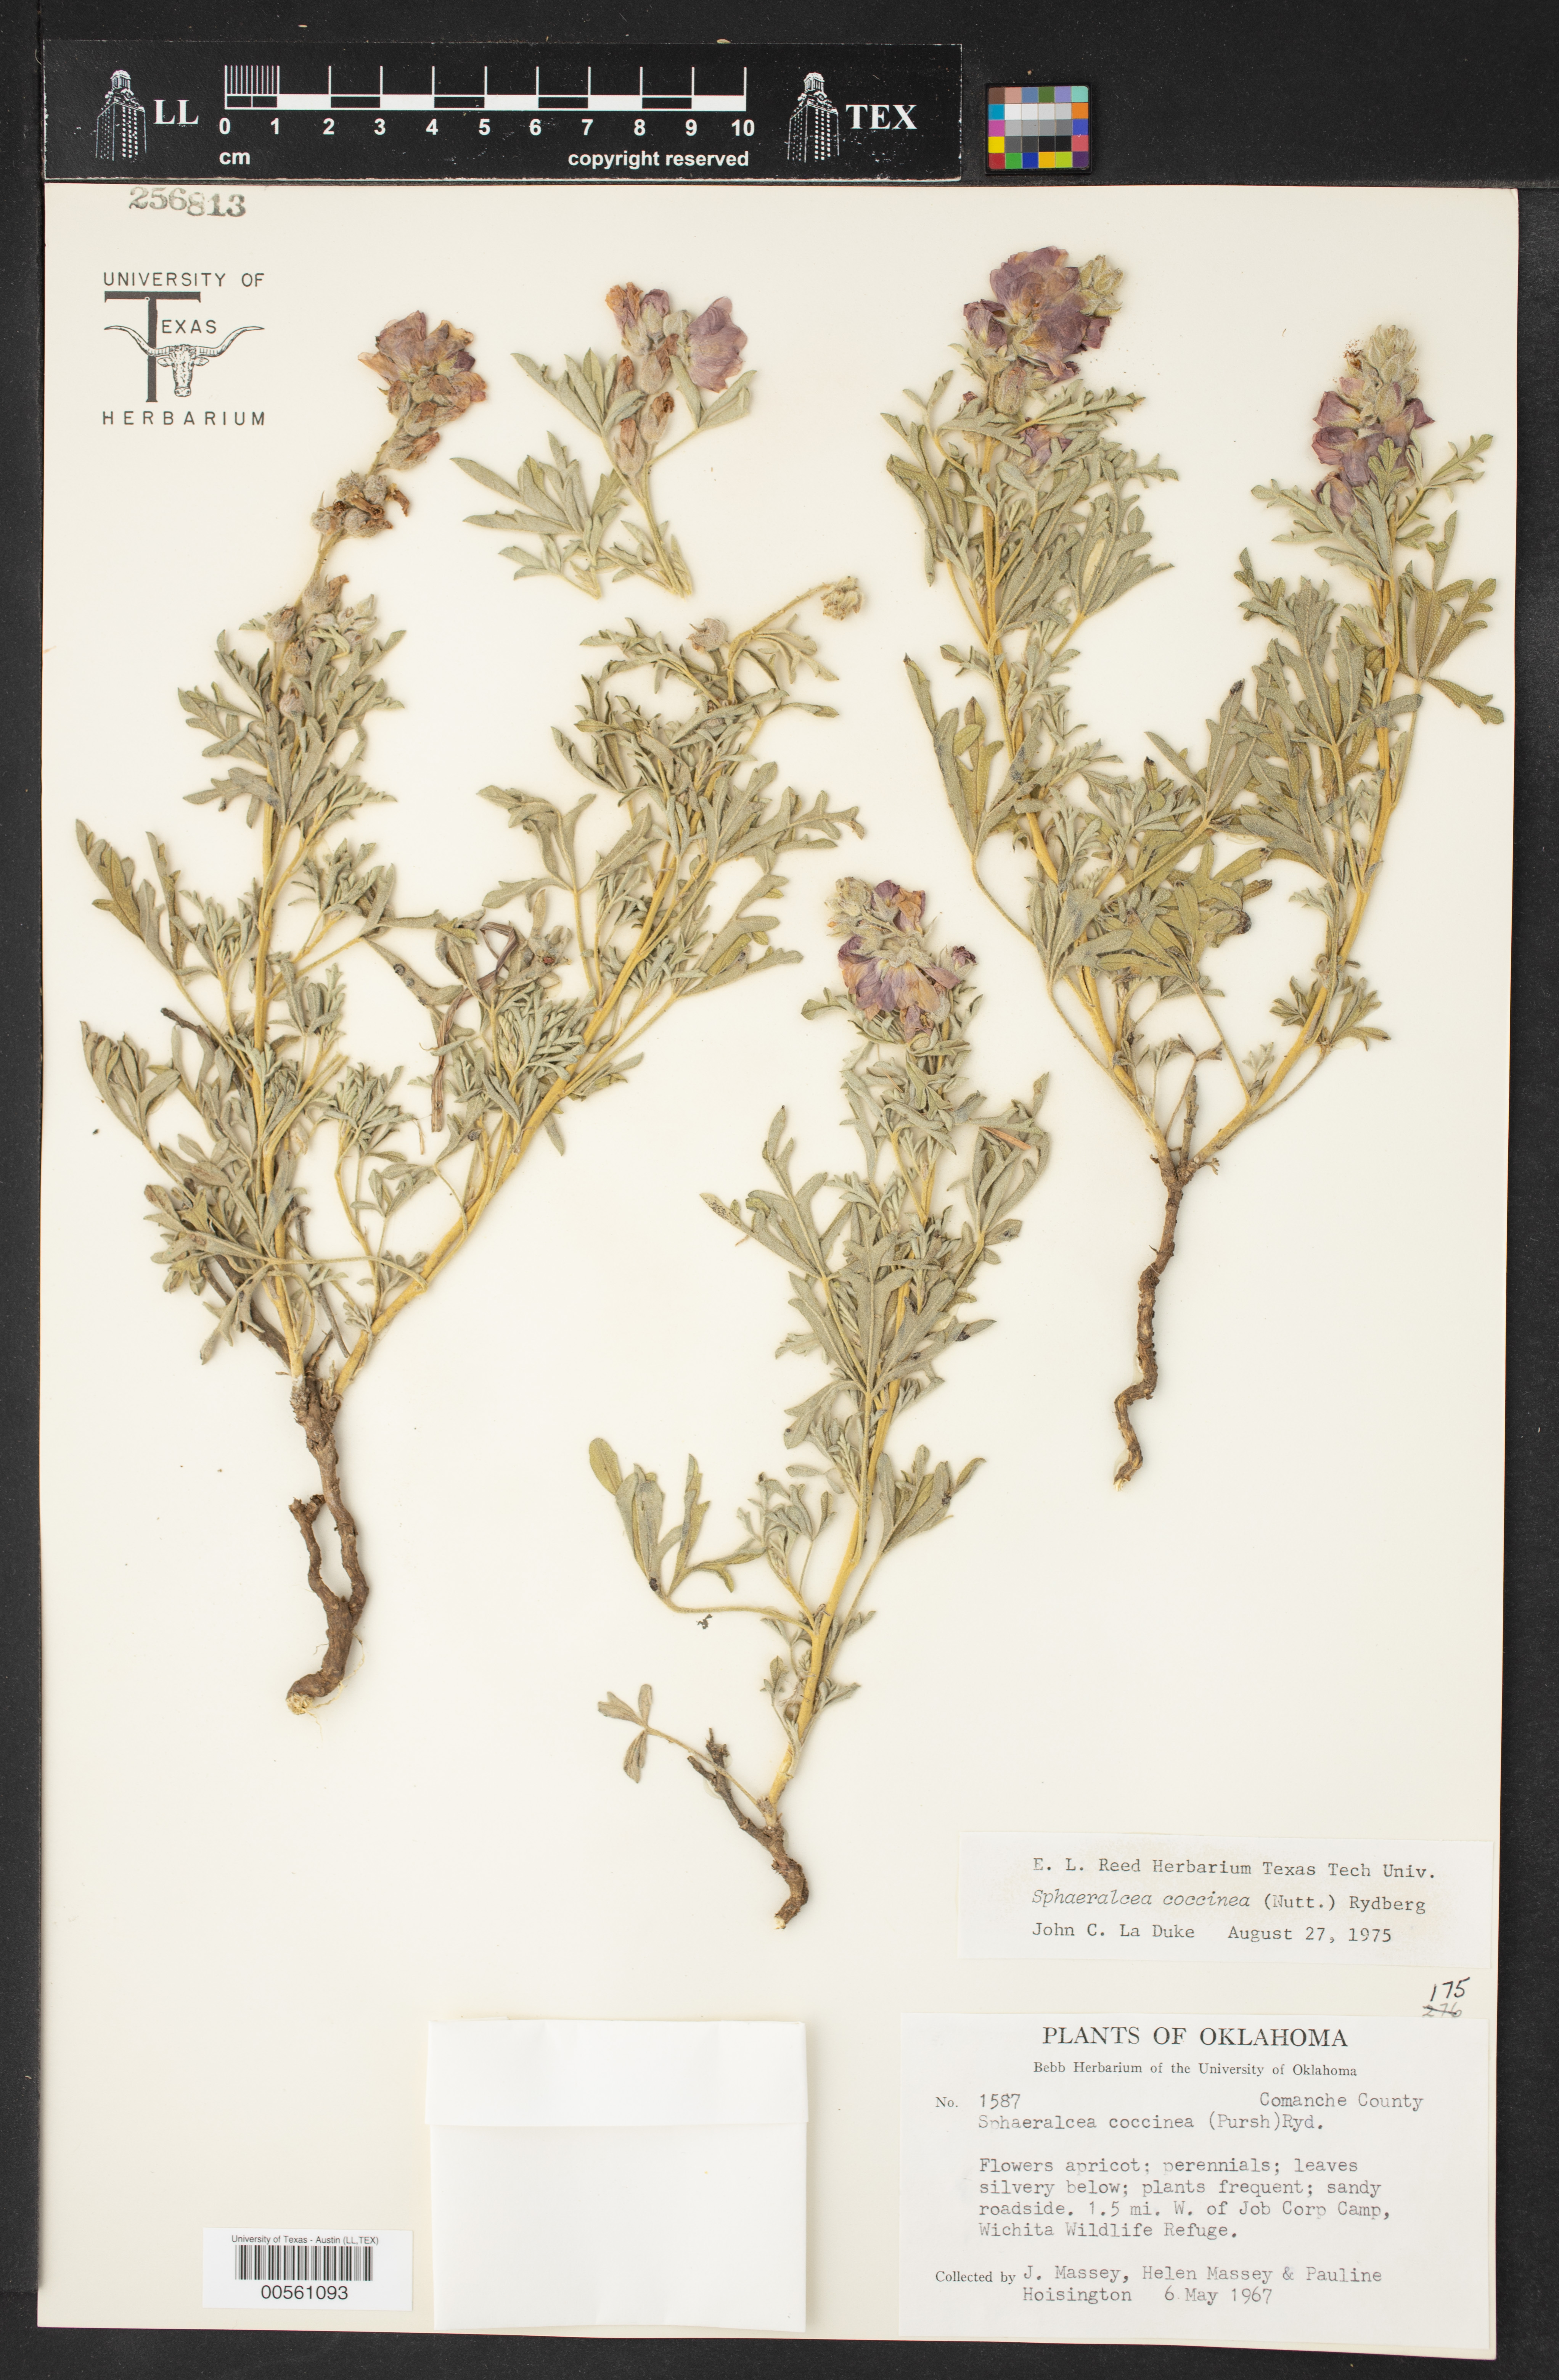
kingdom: Plantae
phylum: Tracheophyta
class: Magnoliopsida
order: Malvales
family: Malvaceae
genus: Sphaeralcea
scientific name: Sphaeralcea coccinea
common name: Moss-rose
